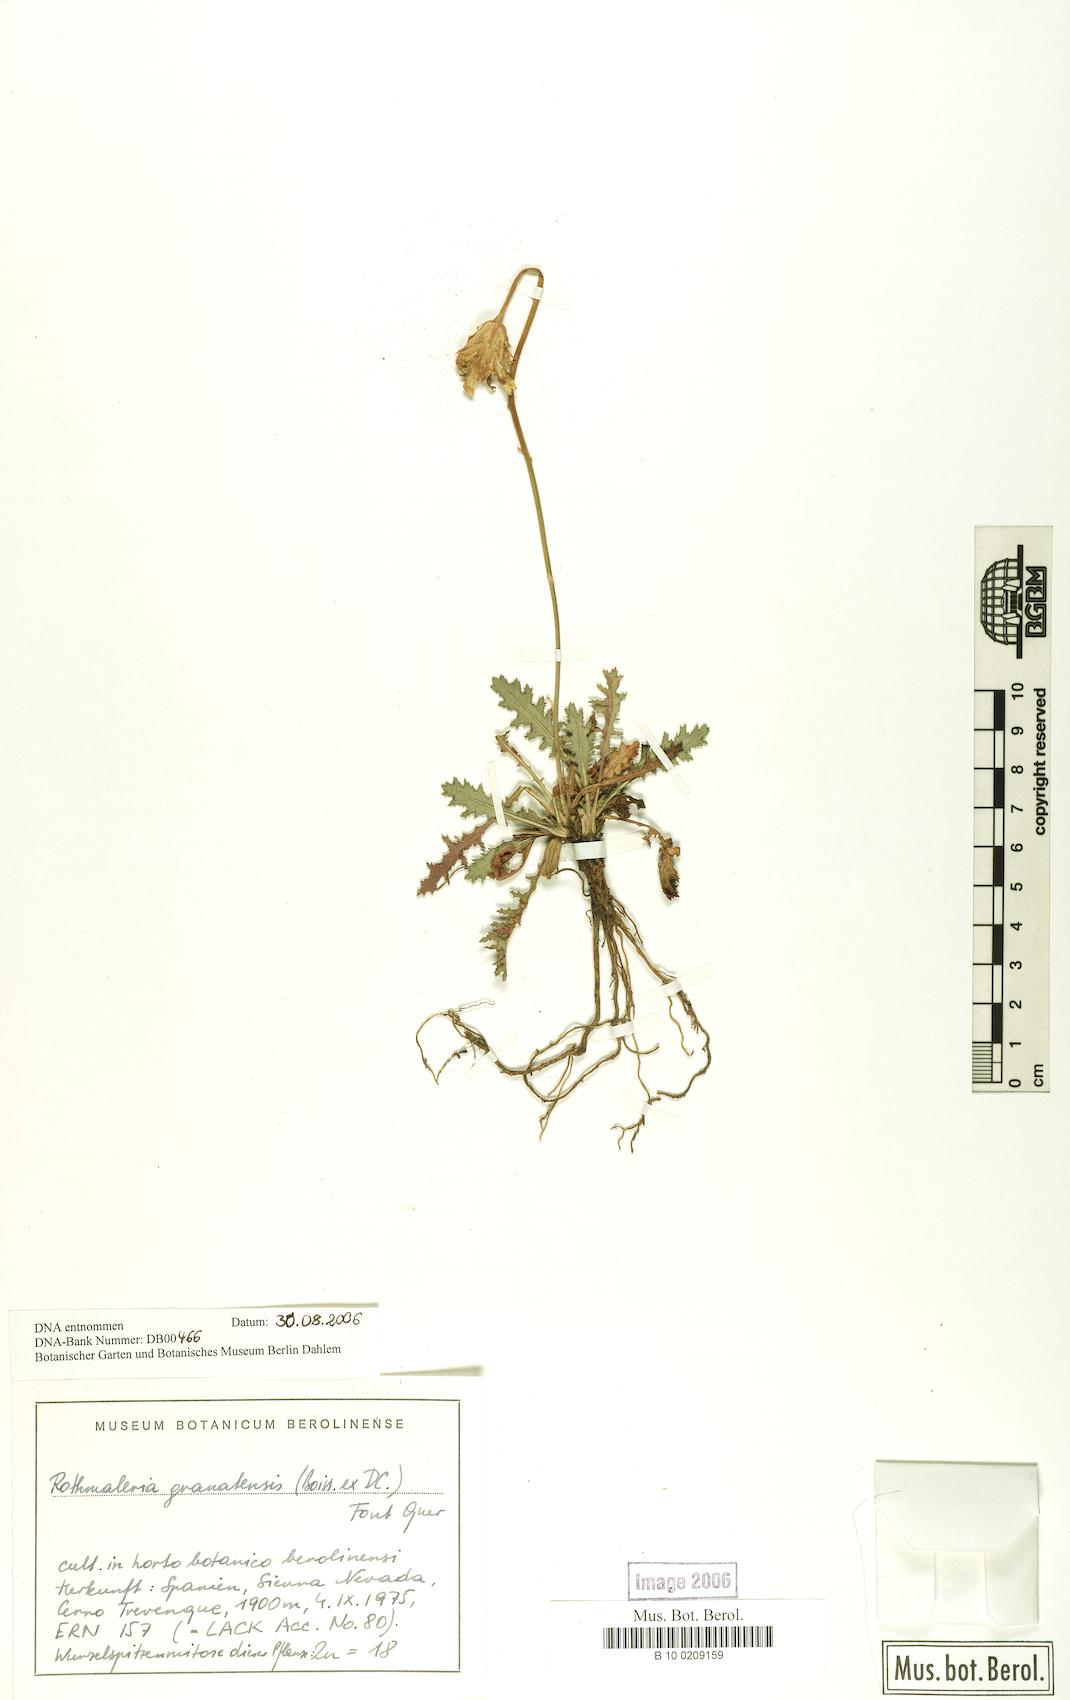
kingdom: Plantae
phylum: Tracheophyta
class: Magnoliopsida
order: Asterales
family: Asteraceae
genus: Rothmaleria
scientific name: Rothmaleria granatensis
